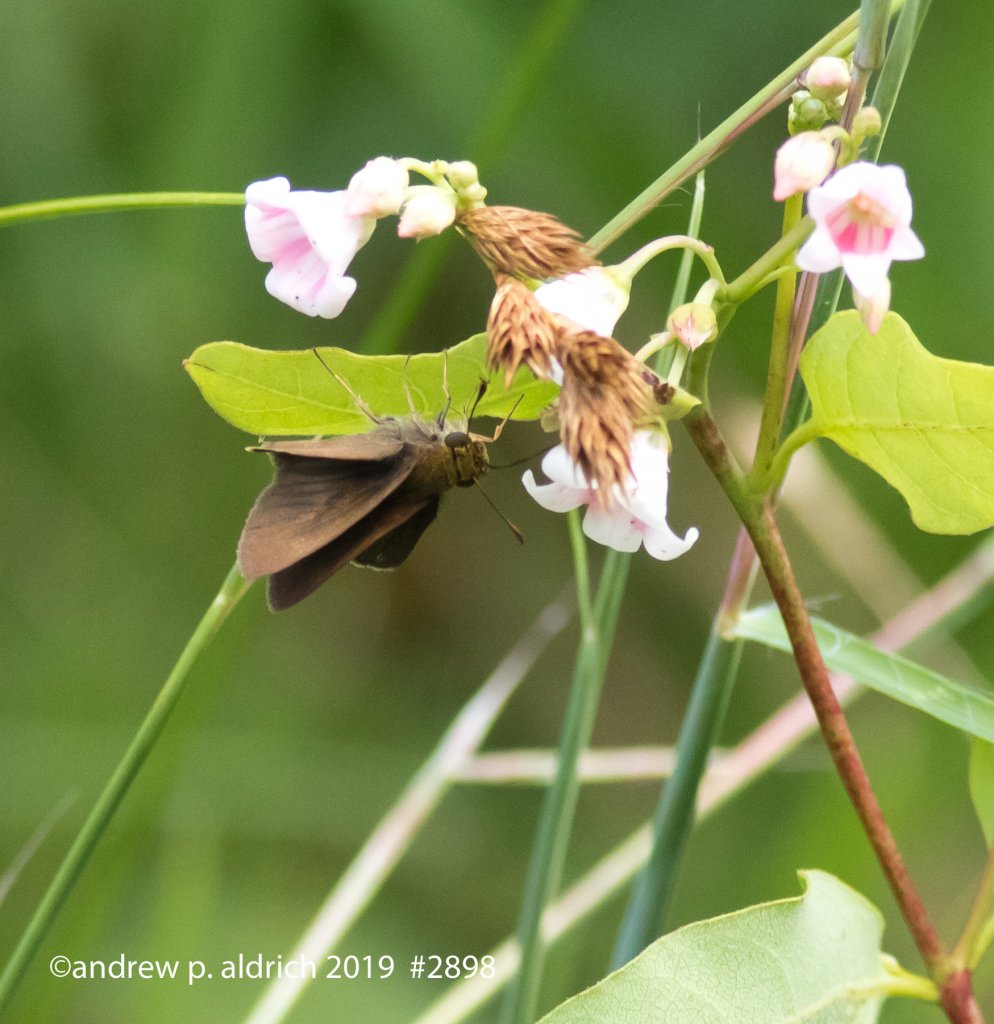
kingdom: Animalia
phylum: Arthropoda
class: Insecta
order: Lepidoptera
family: Hesperiidae
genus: Euphyes
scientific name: Euphyes vestris
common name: Dun Skipper
